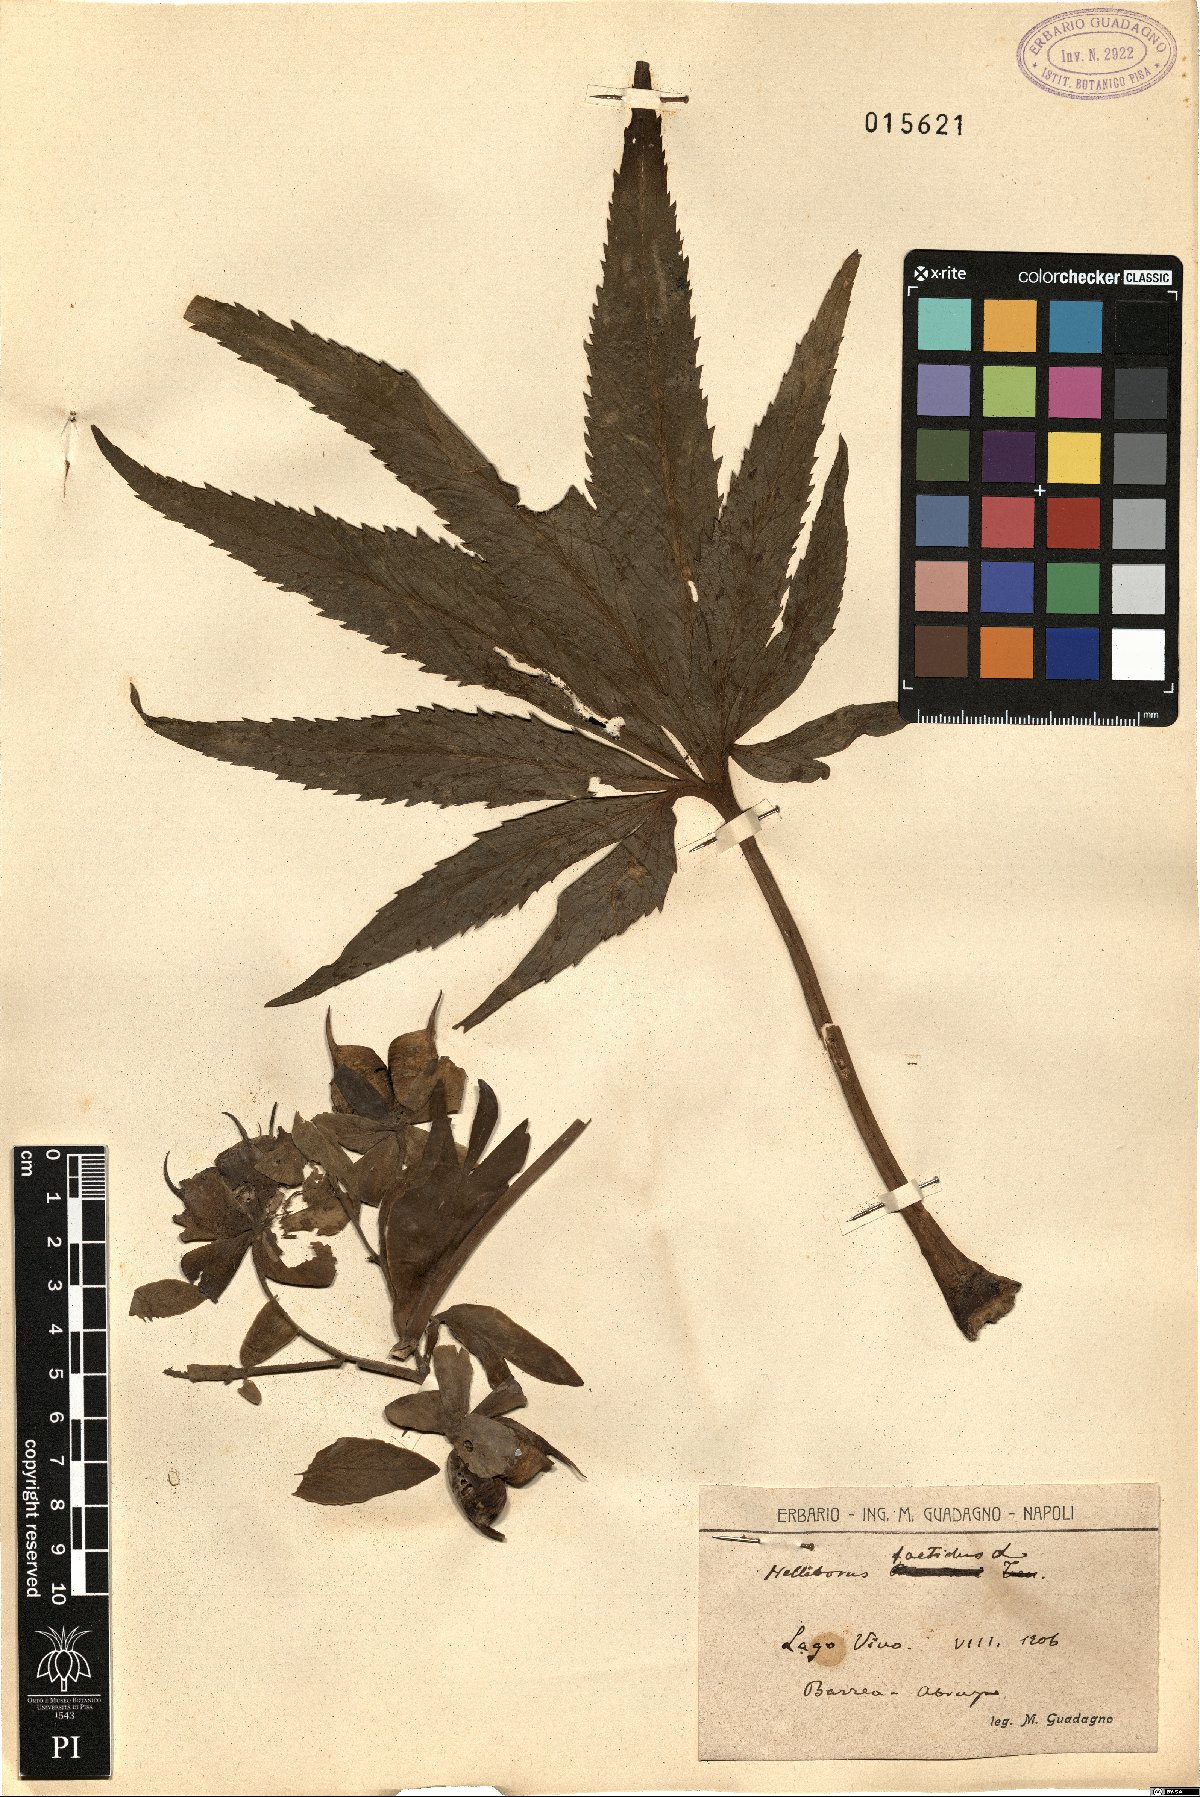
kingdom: Plantae
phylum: Tracheophyta
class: Magnoliopsida
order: Ranunculales
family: Ranunculaceae
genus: Helleborus
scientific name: Helleborus foetidus
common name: Stinking hellebore
